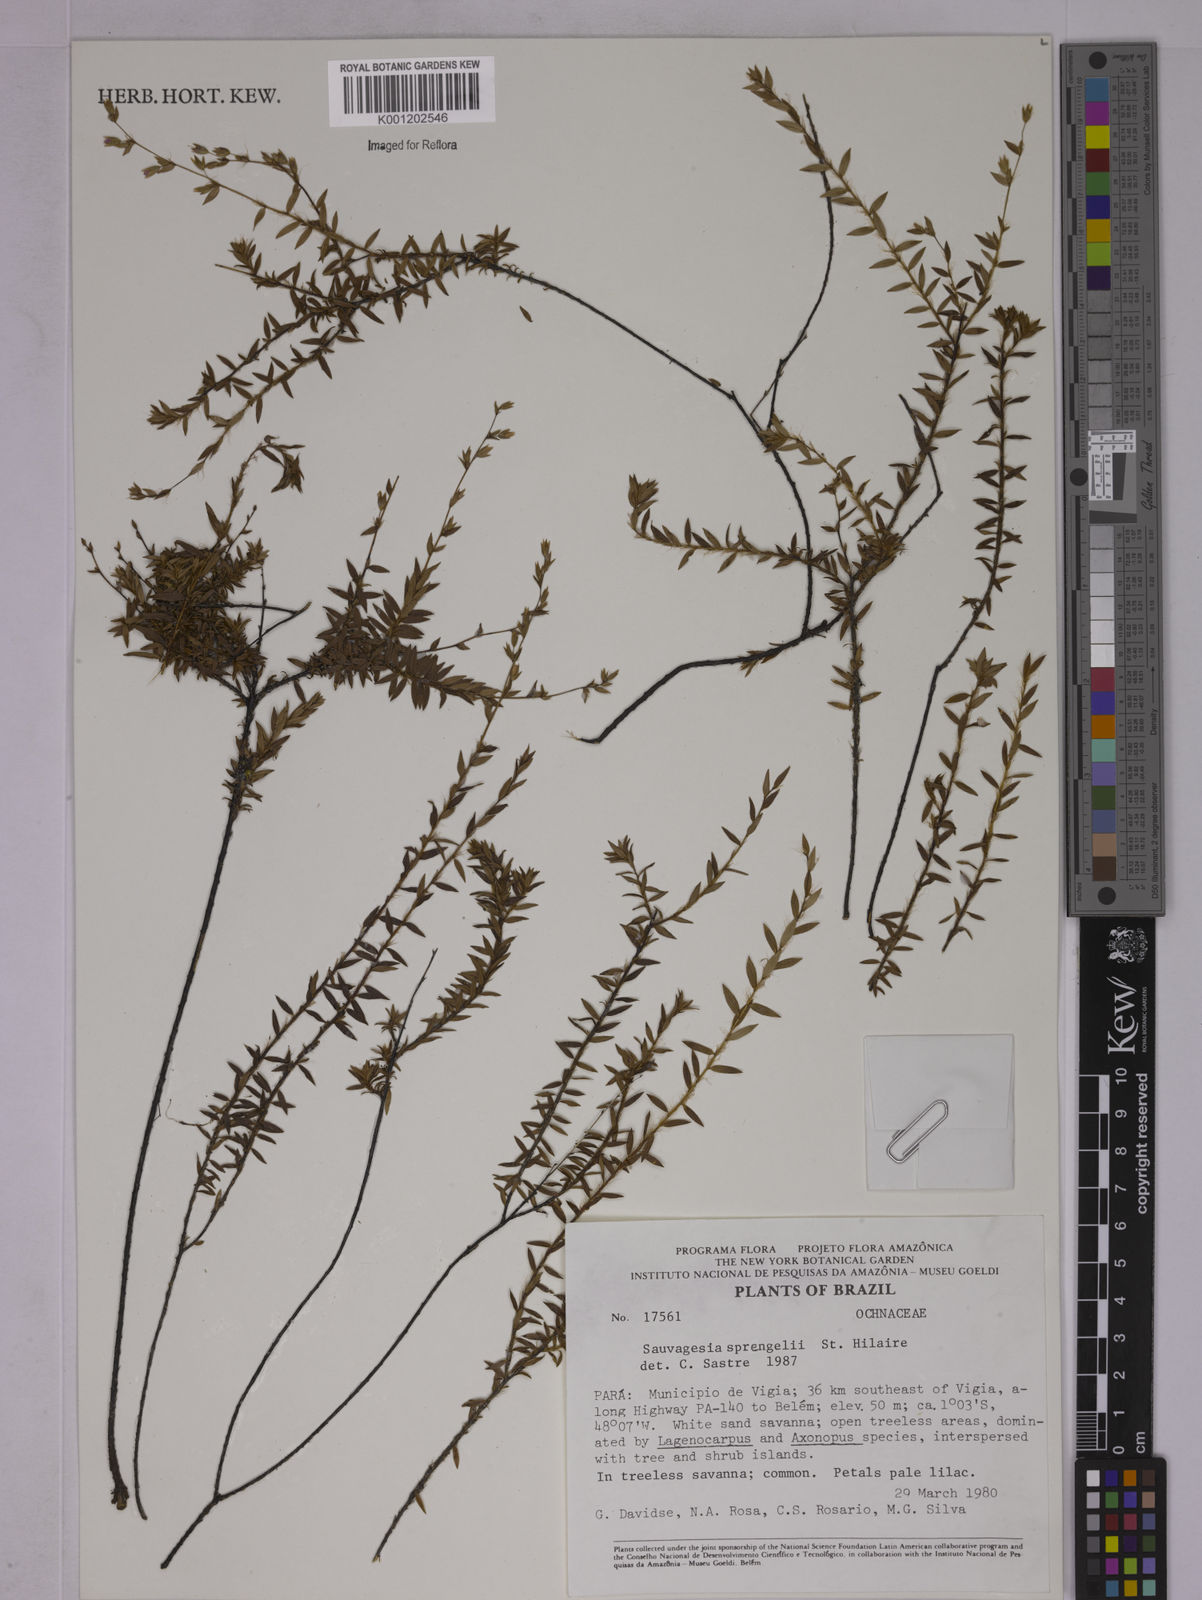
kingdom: Plantae
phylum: Tracheophyta
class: Magnoliopsida
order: Malpighiales
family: Ochnaceae
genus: Sauvagesia
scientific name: Sauvagesia sprengelii
